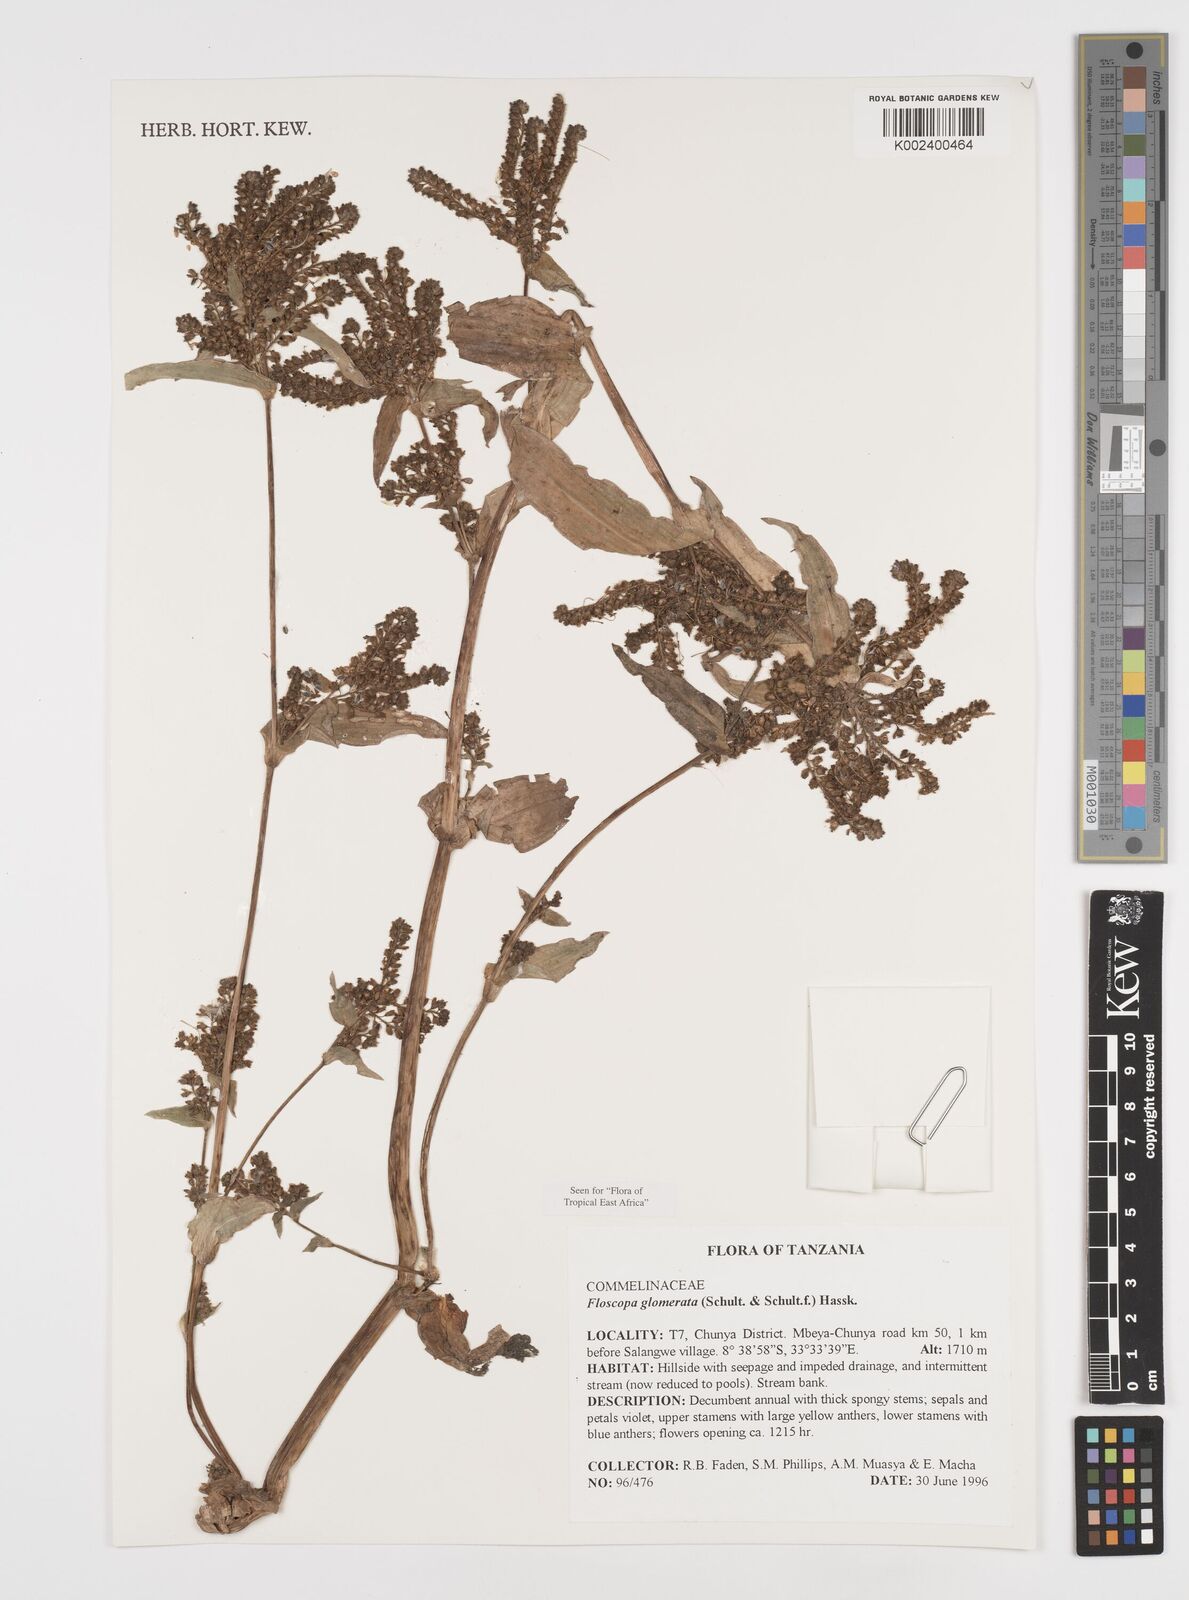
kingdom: Plantae
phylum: Tracheophyta
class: Liliopsida
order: Commelinales
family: Commelinaceae
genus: Floscopa
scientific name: Floscopa glomerata
